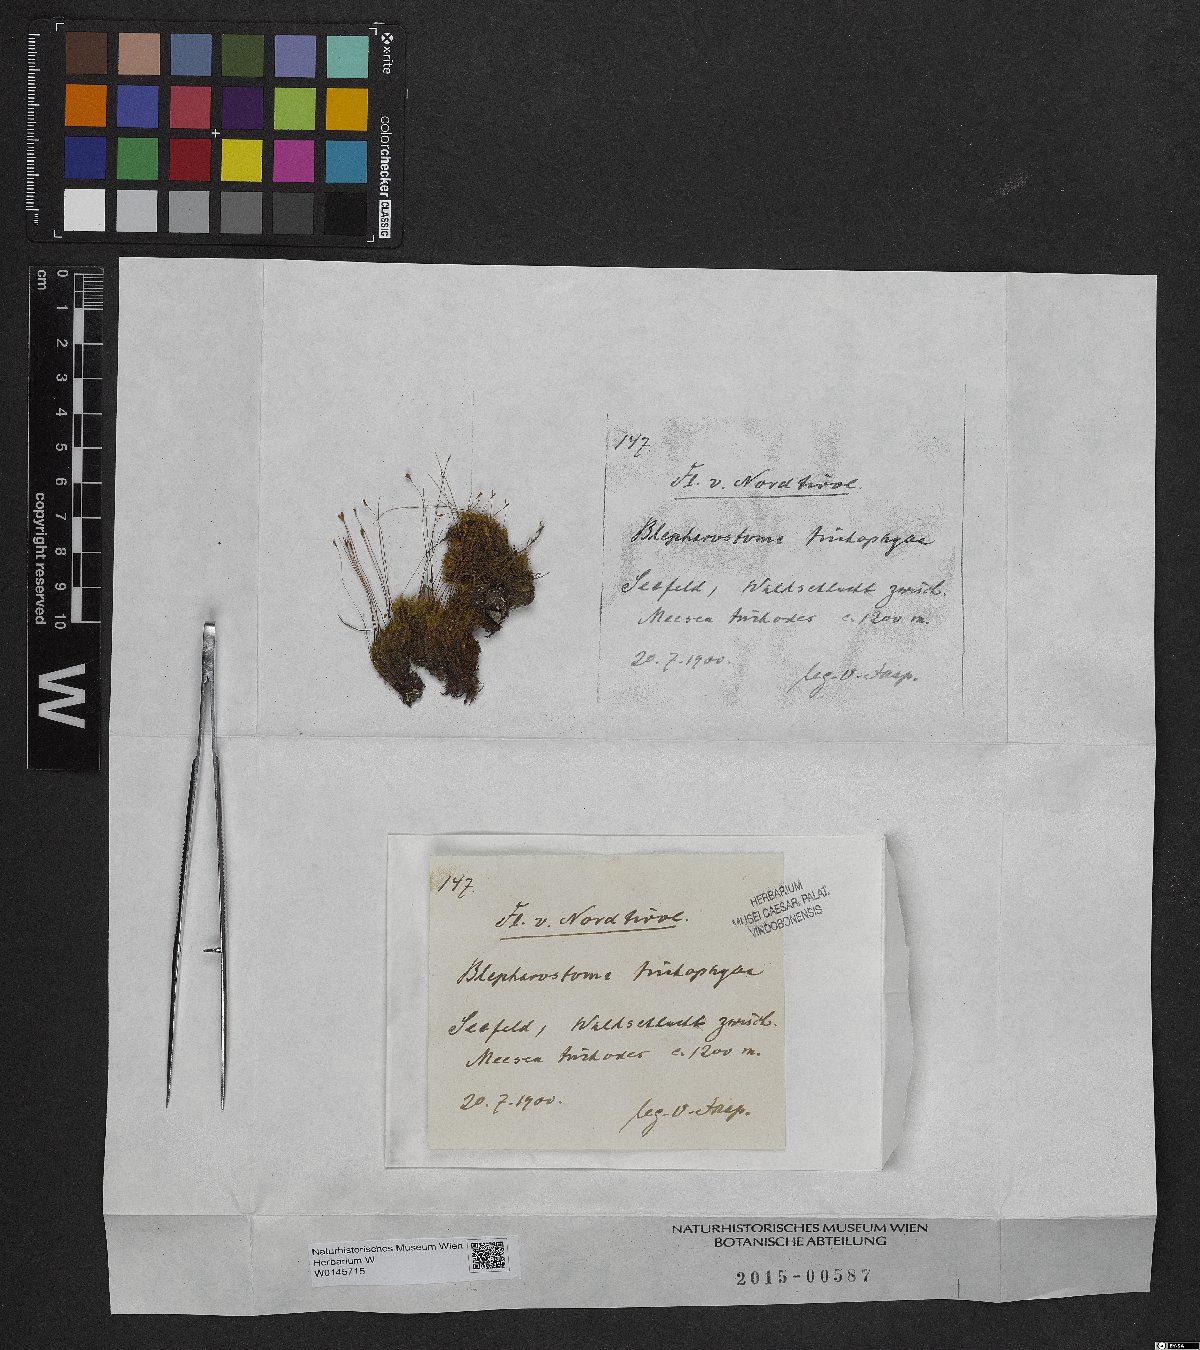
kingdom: Plantae
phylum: Marchantiophyta
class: Jungermanniopsida
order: Jungermanniales
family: Blepharostomataceae
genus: Blepharostoma
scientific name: Blepharostoma trichophyllum
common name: Hairy threadwort
